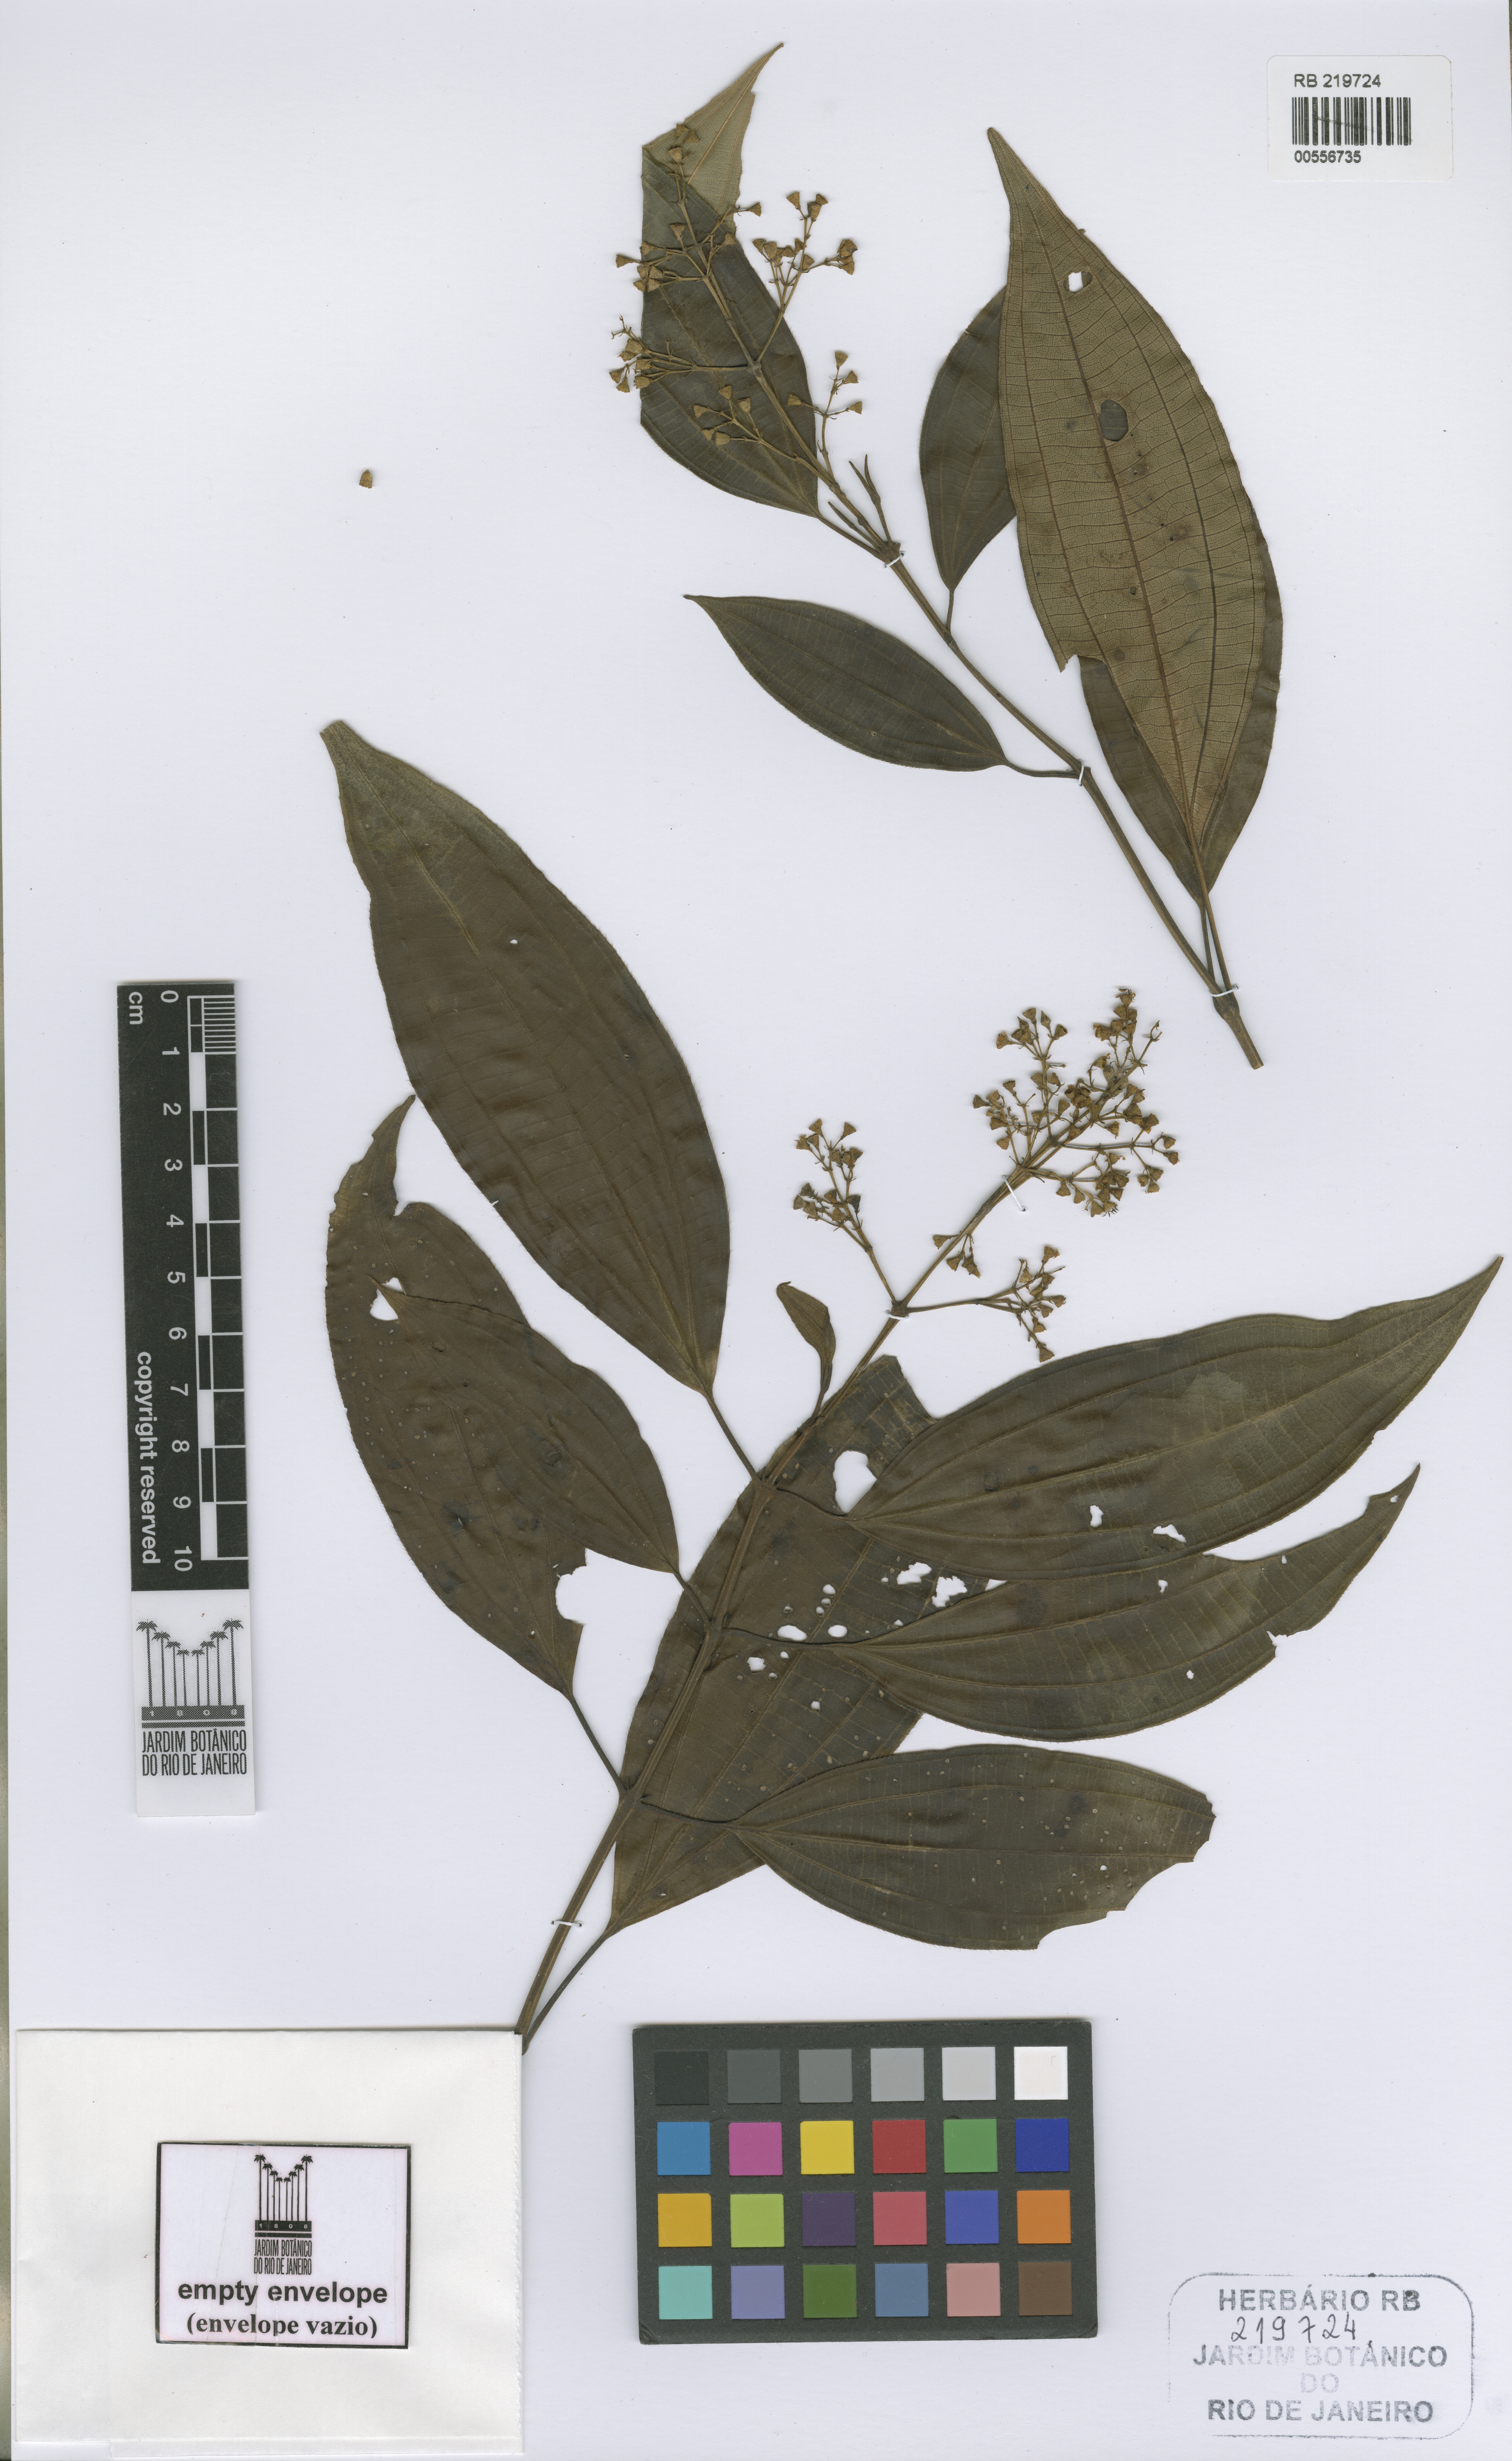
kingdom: Plantae
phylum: Tracheophyta
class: Magnoliopsida
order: Myrtales
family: Melastomataceae
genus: Miconia
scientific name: Miconia leatruncata
